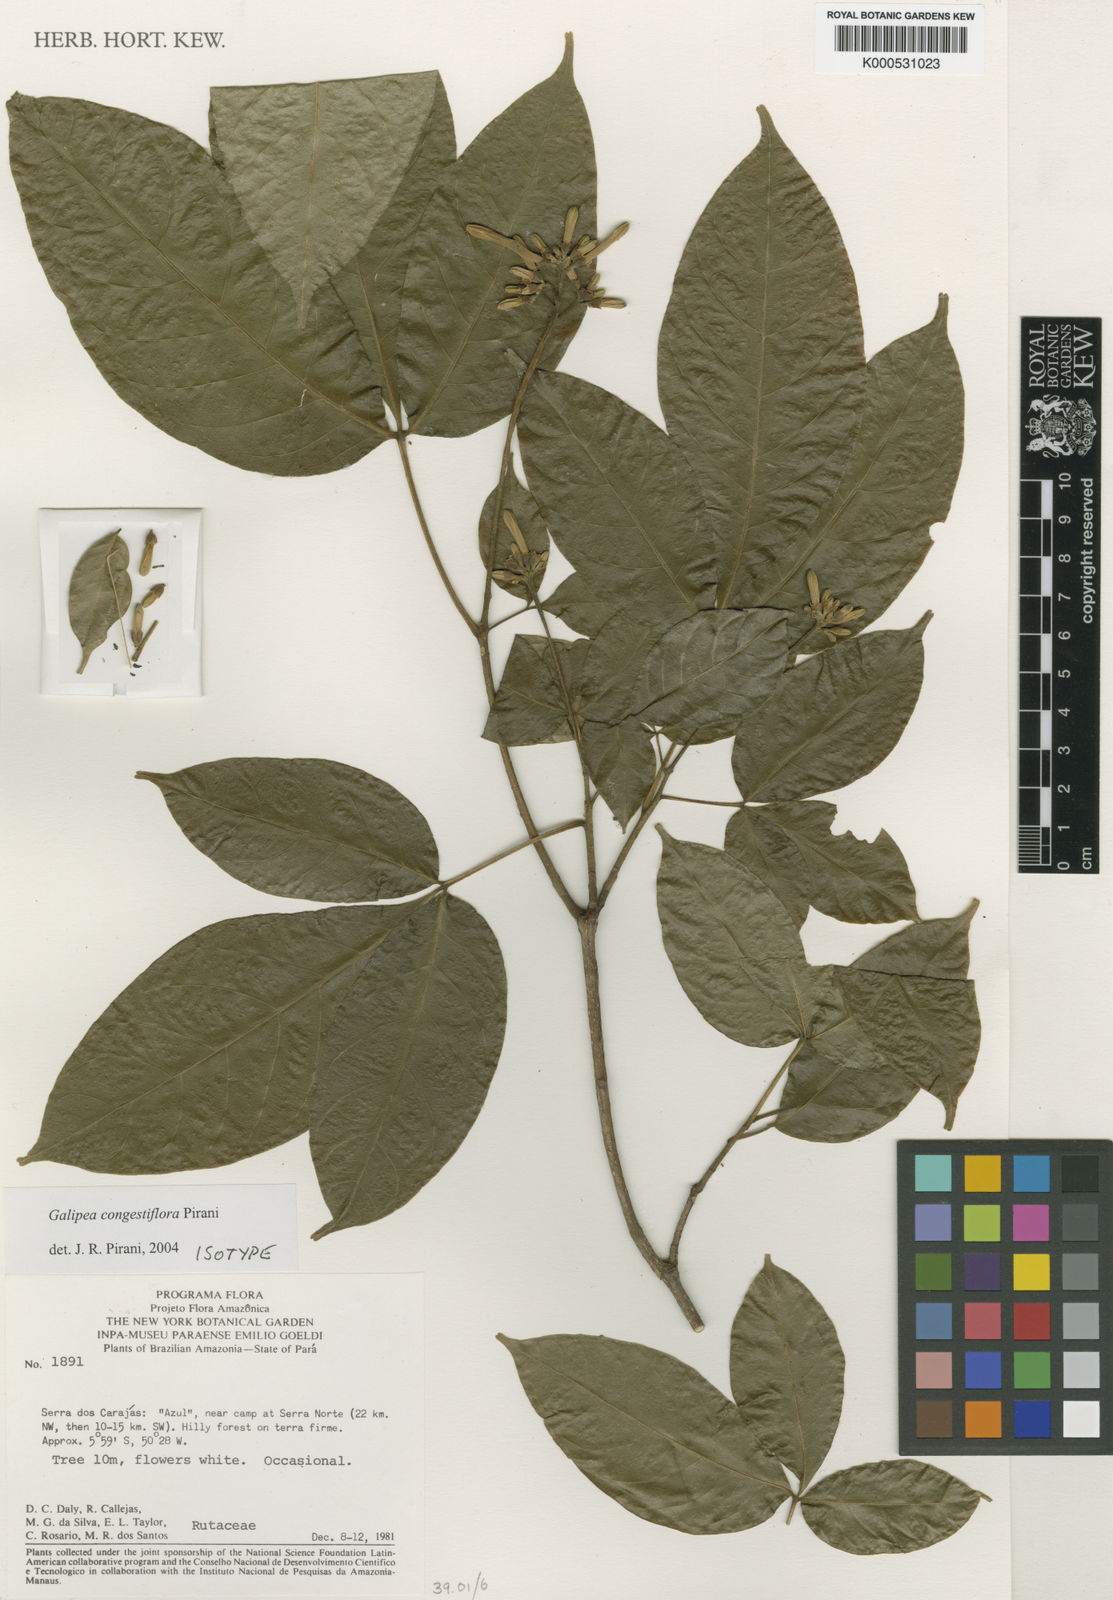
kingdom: Plantae
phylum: Tracheophyta
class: Magnoliopsida
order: Sapindales
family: Rutaceae
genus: Galipea
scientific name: Galipea congestiflora
